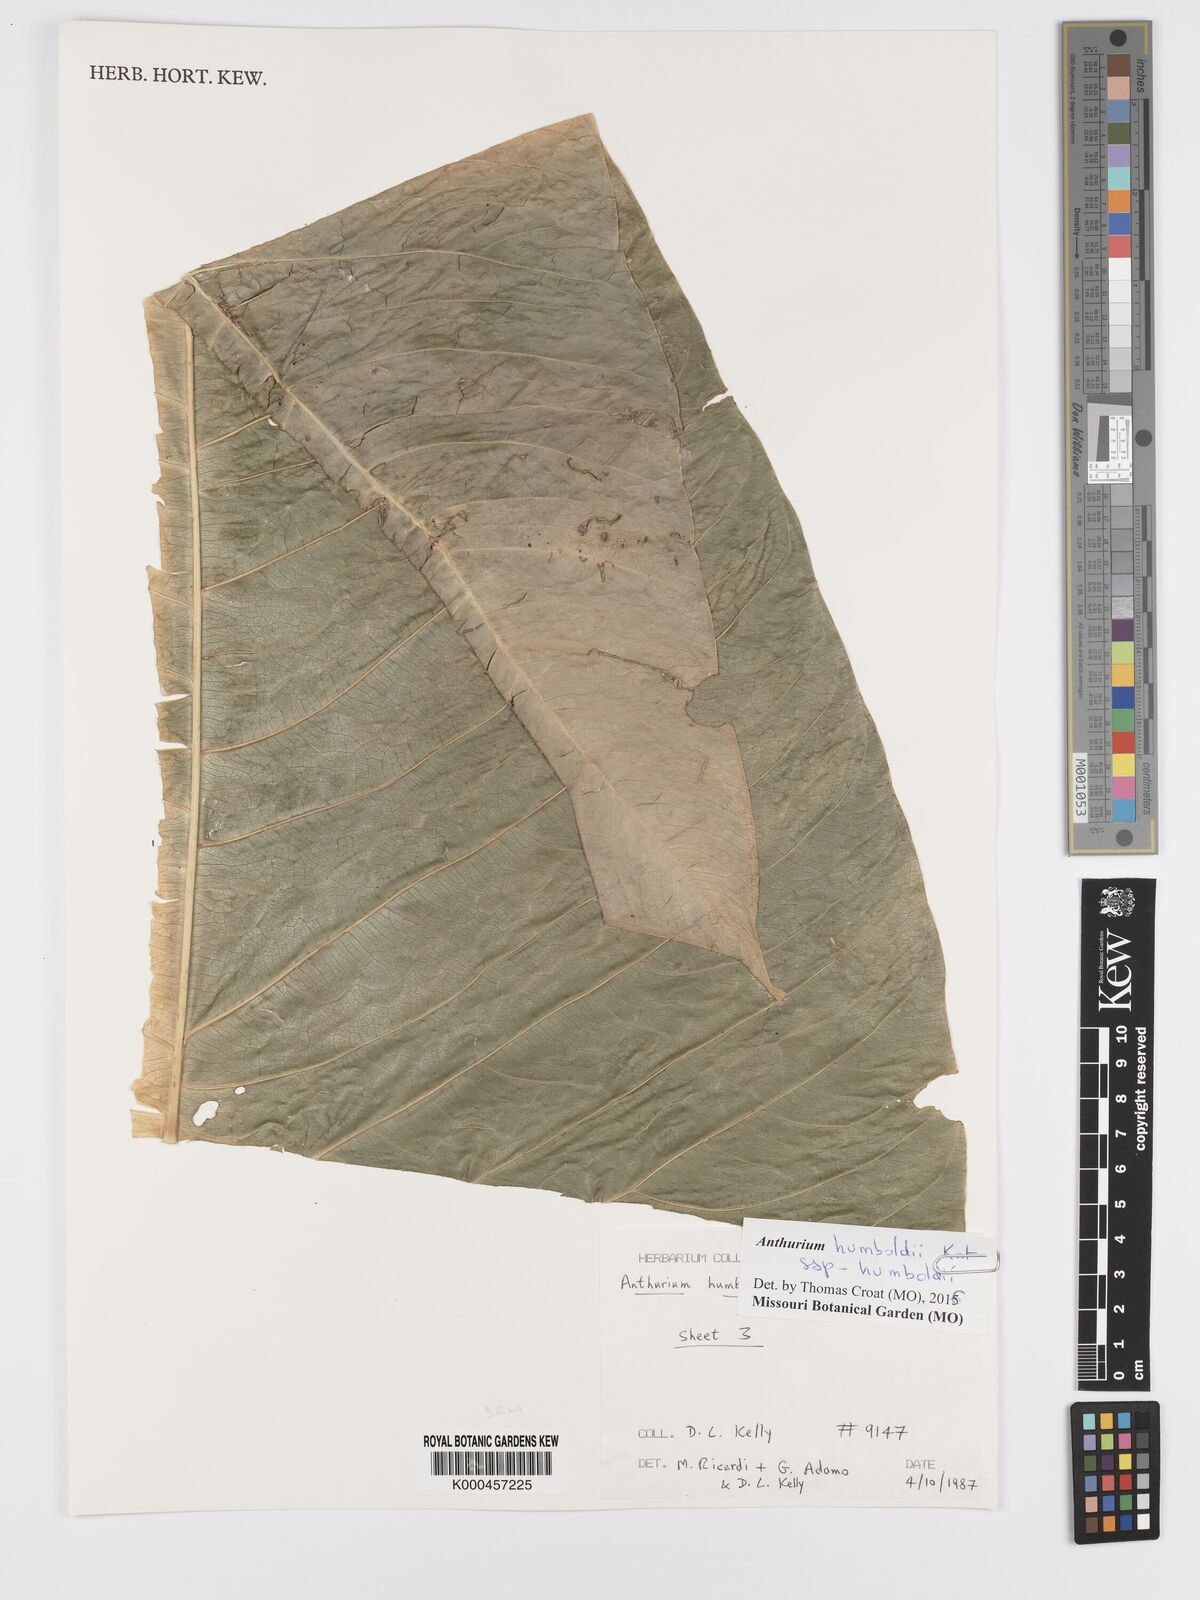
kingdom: Plantae
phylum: Tracheophyta
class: Liliopsida
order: Alismatales
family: Araceae
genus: Anthurium
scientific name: Anthurium martae
